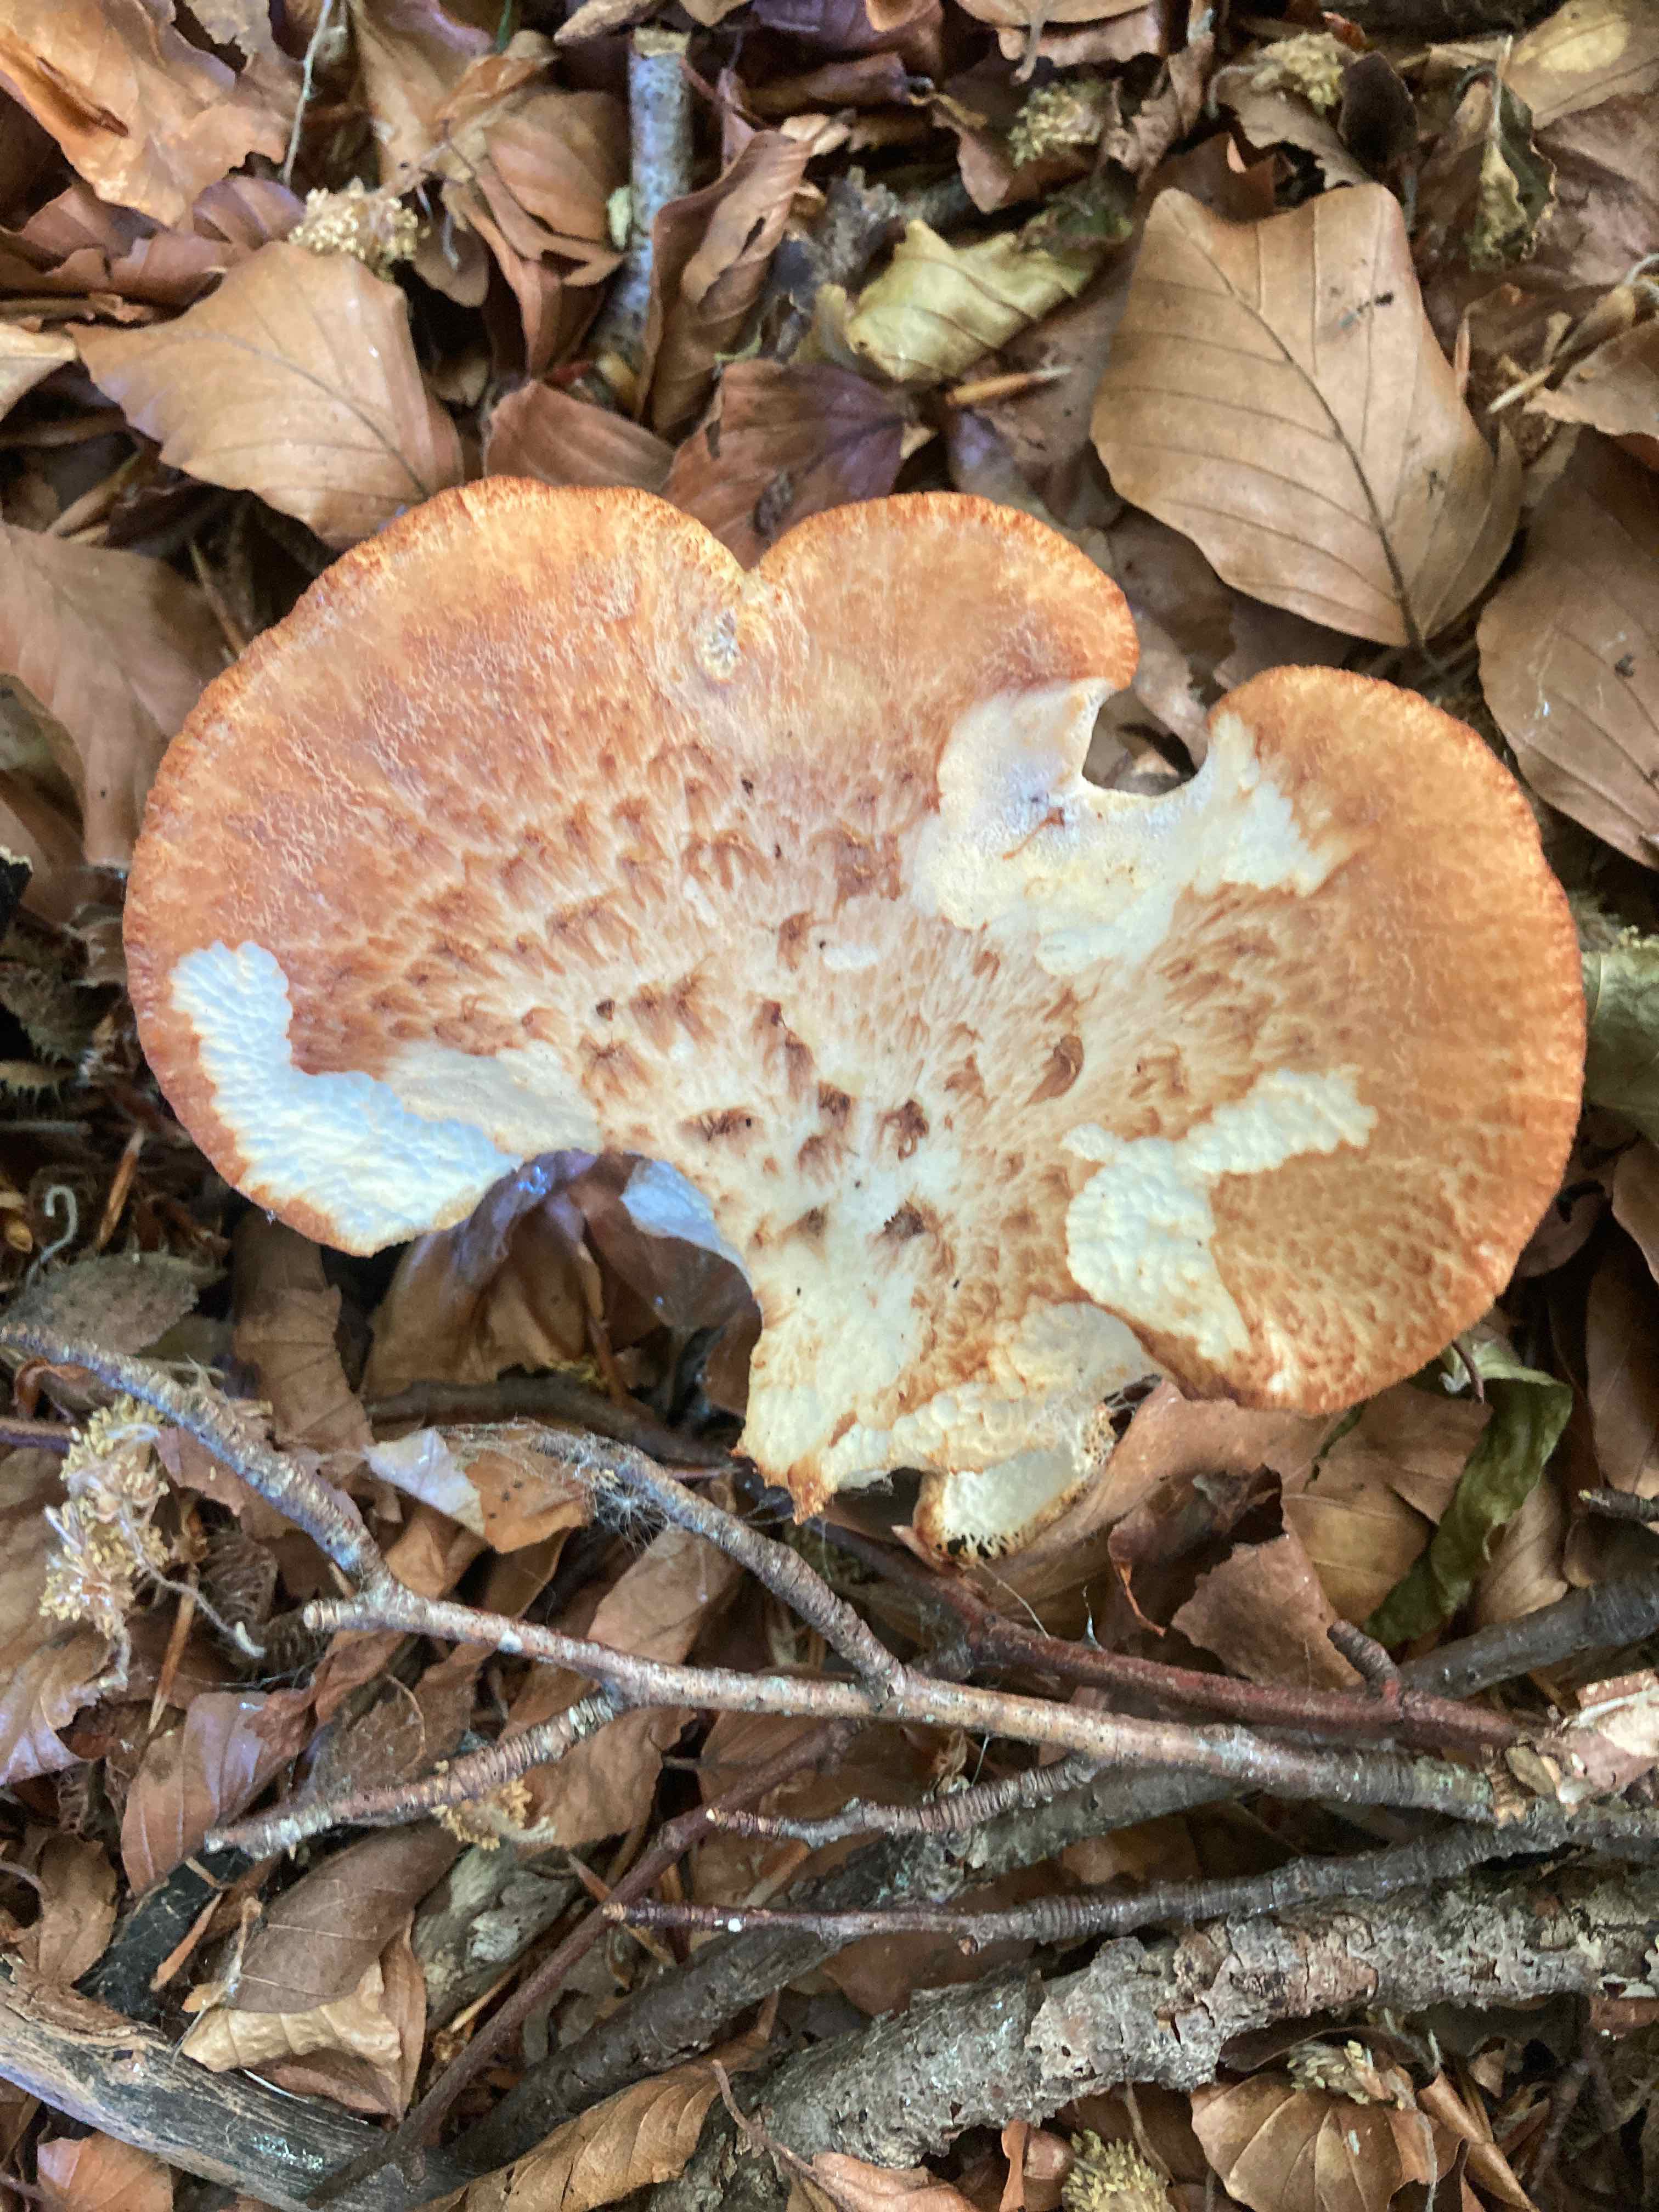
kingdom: Fungi
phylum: Basidiomycota
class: Agaricomycetes
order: Polyporales
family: Polyporaceae
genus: Polyporus
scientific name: Polyporus tuberaster
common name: knoldet stilkporesvamp
